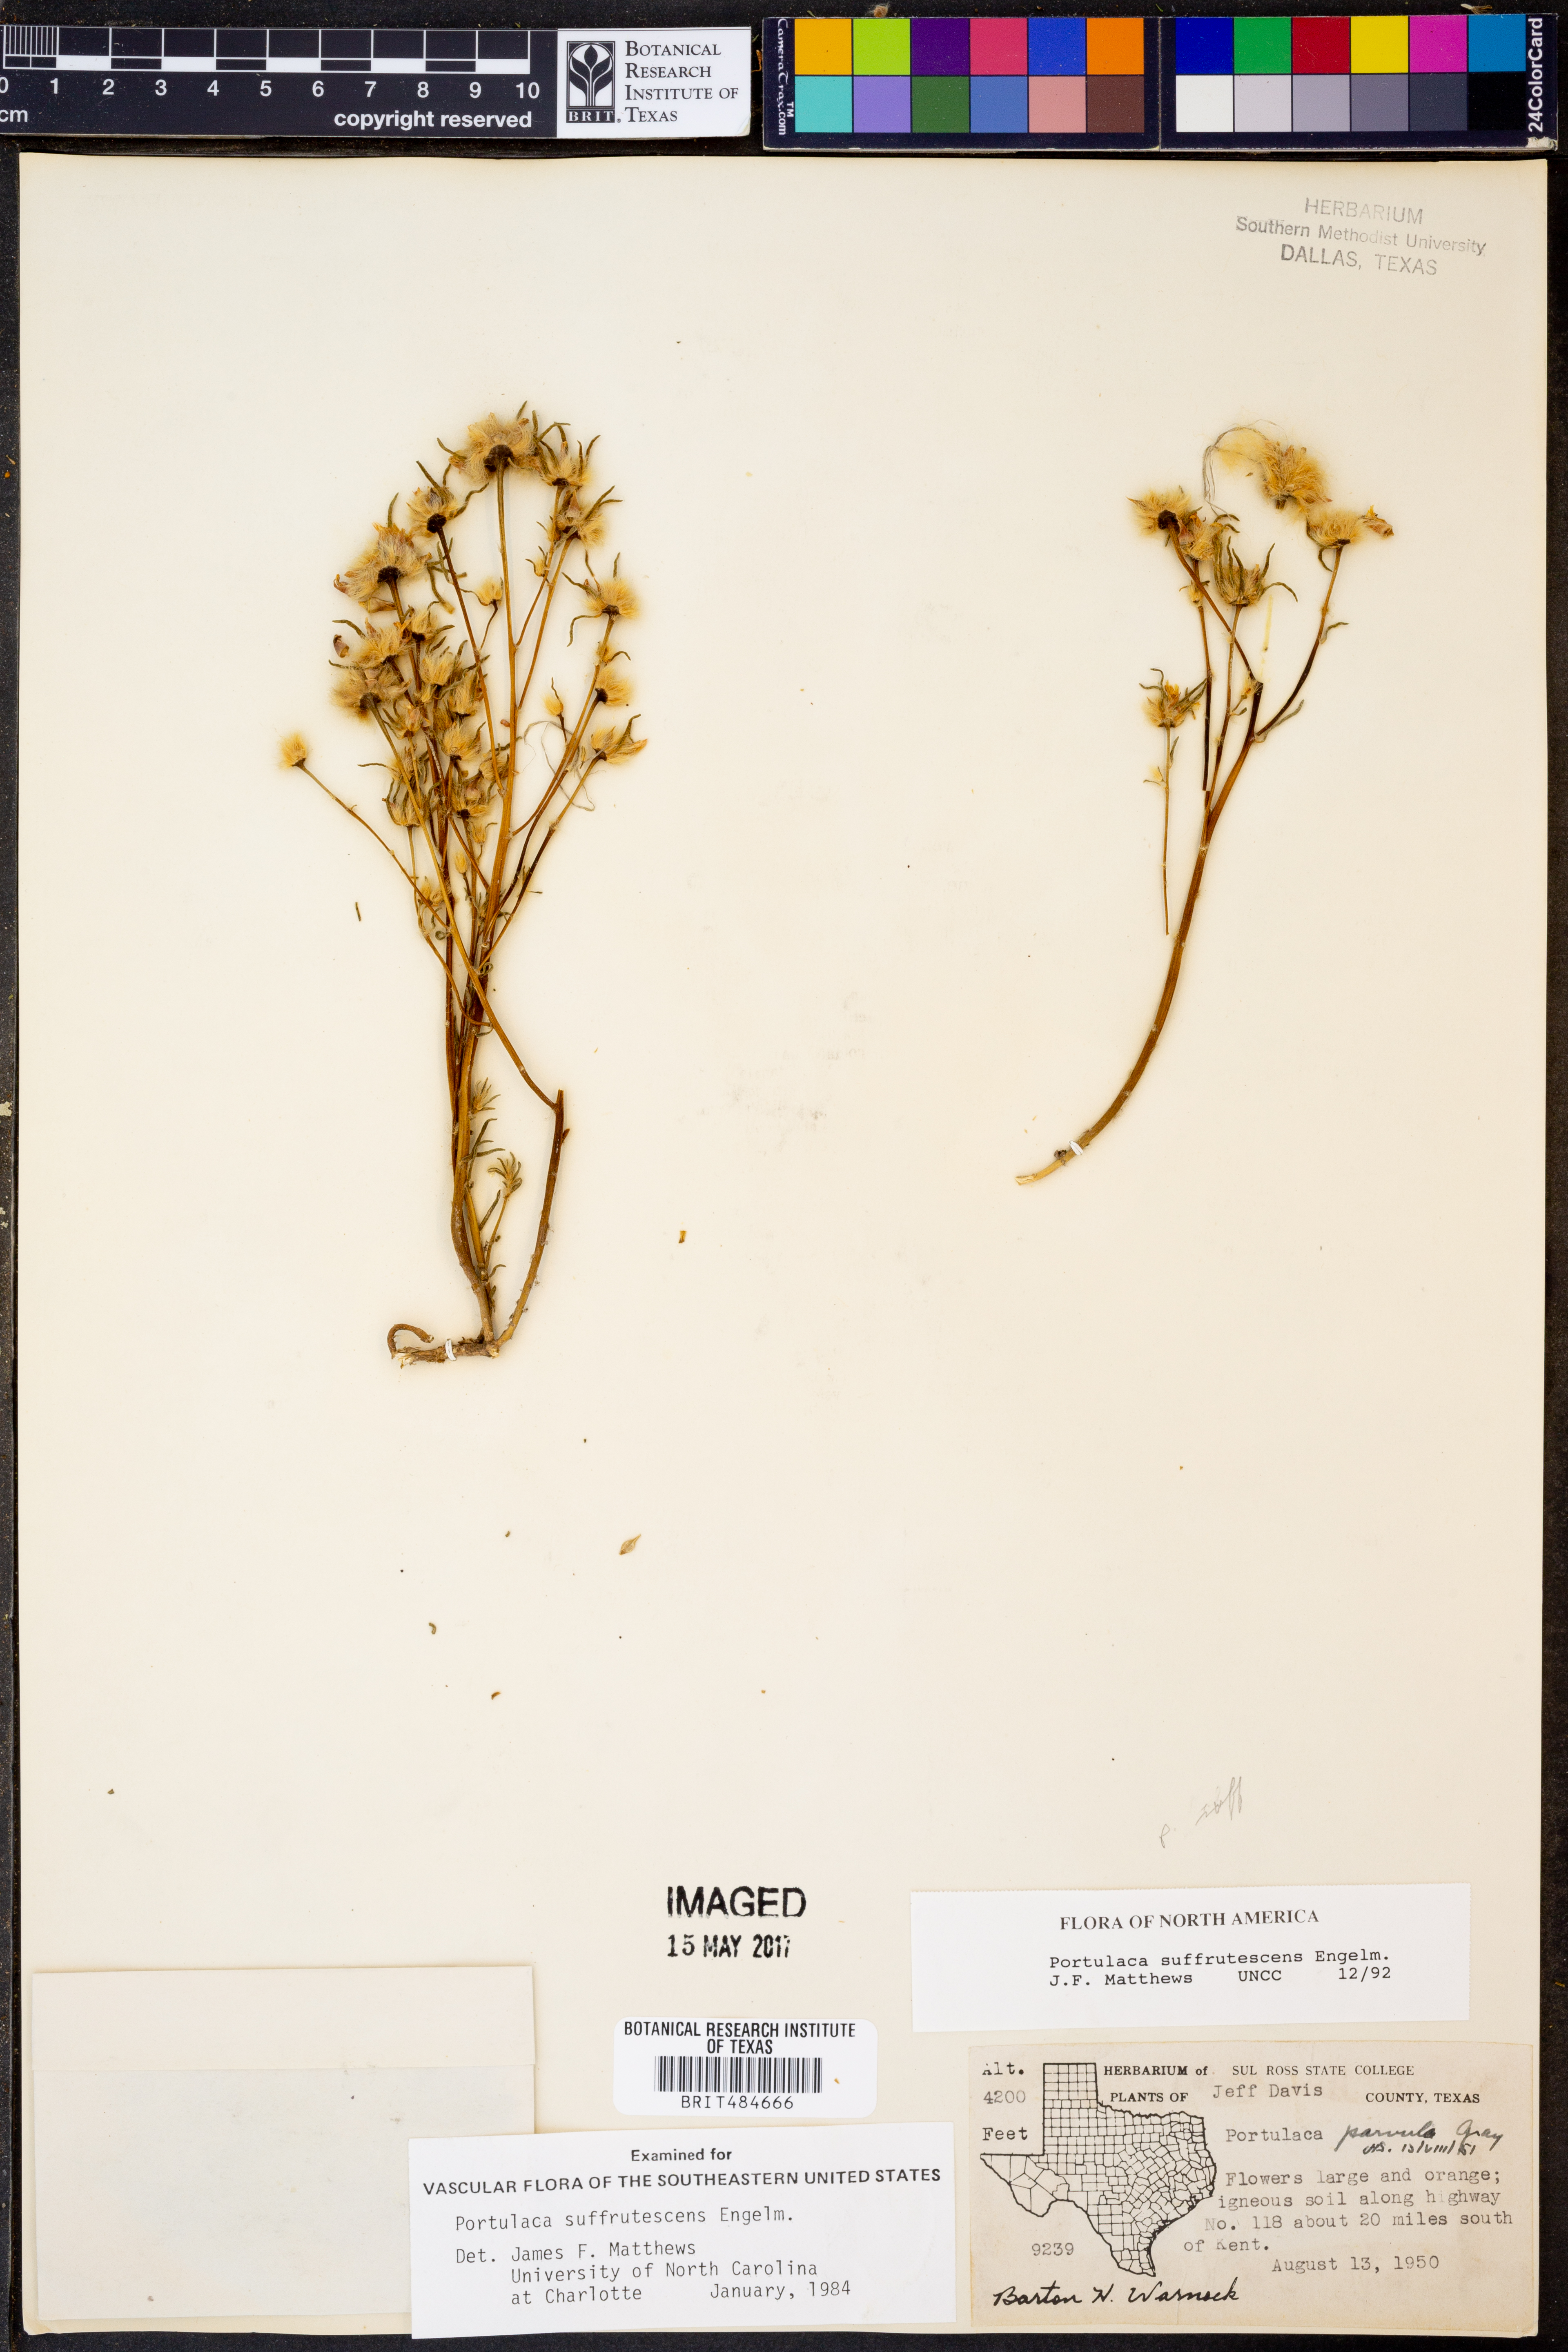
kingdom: Plantae
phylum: Tracheophyta
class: Magnoliopsida
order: Caryophyllales
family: Portulacaceae
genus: Portulaca
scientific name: Portulaca suffrutescens
